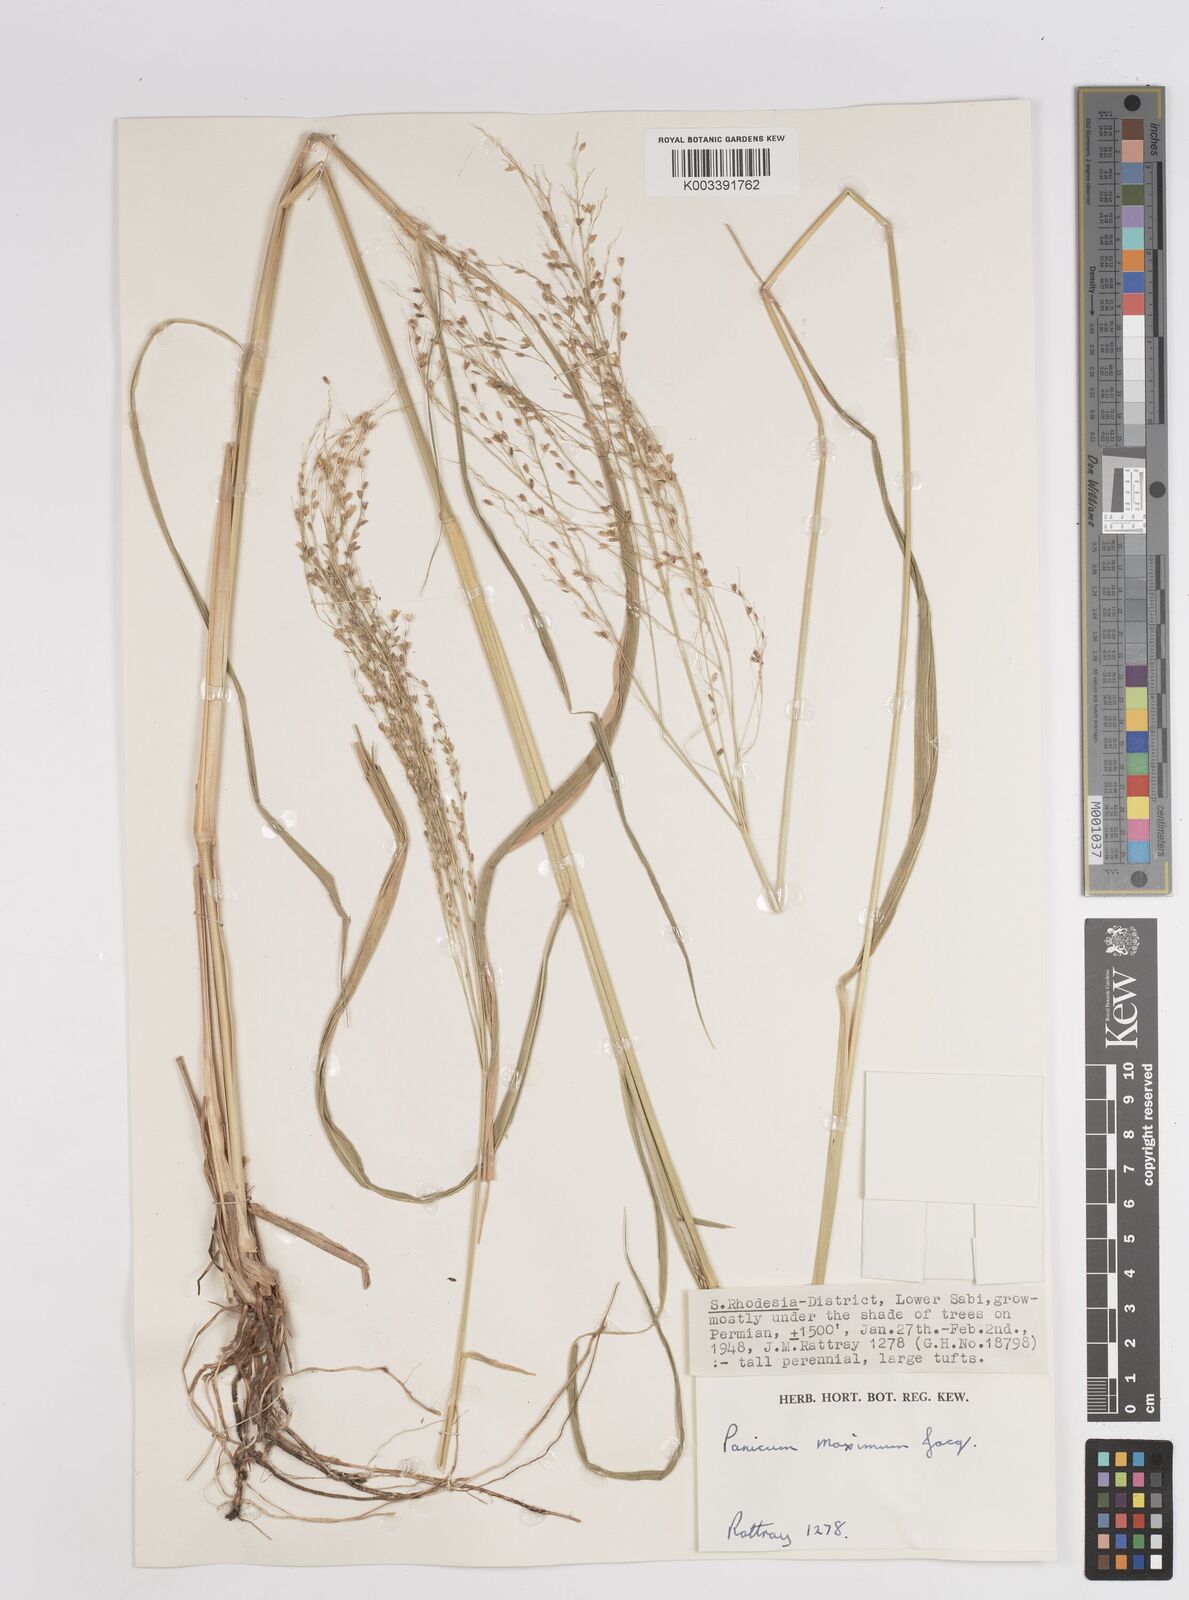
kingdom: Plantae
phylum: Tracheophyta
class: Liliopsida
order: Poales
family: Poaceae
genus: Megathyrsus
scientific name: Megathyrsus maximus
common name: Guineagrass
